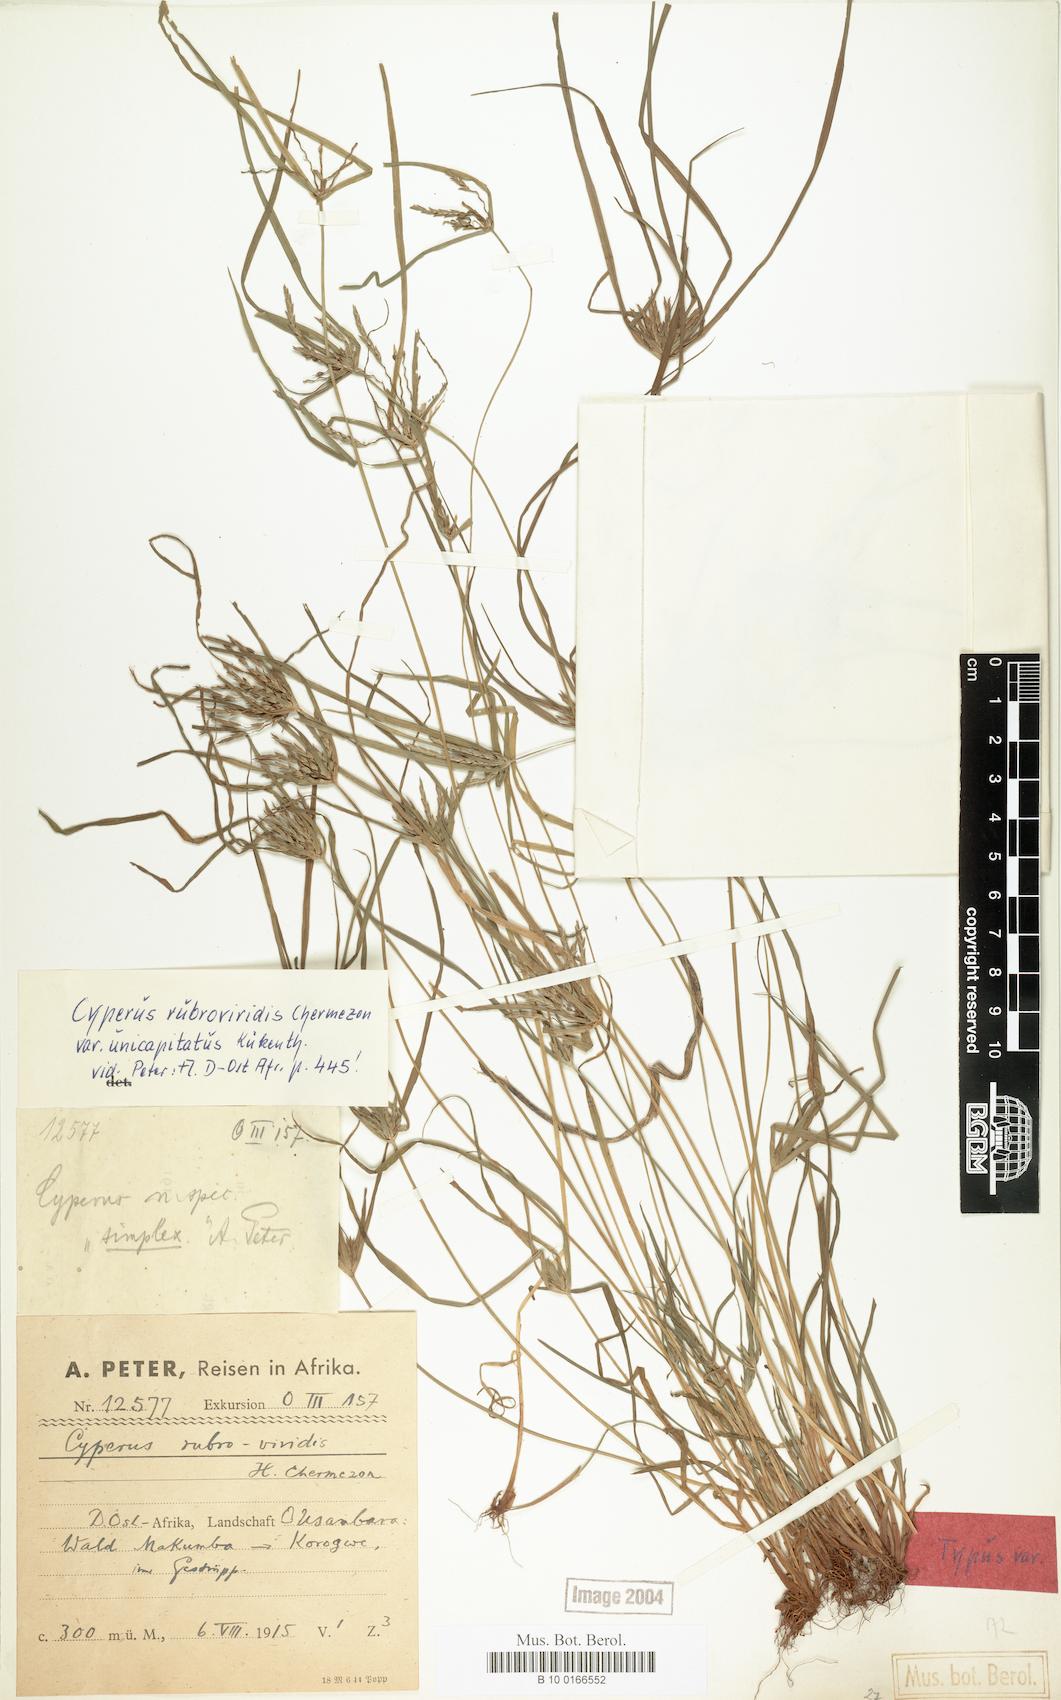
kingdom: Plantae
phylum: Tracheophyta
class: Liliopsida
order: Poales
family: Cyperaceae
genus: Cyperus
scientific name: Cyperus zollingeri
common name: Roadside flatsedge
